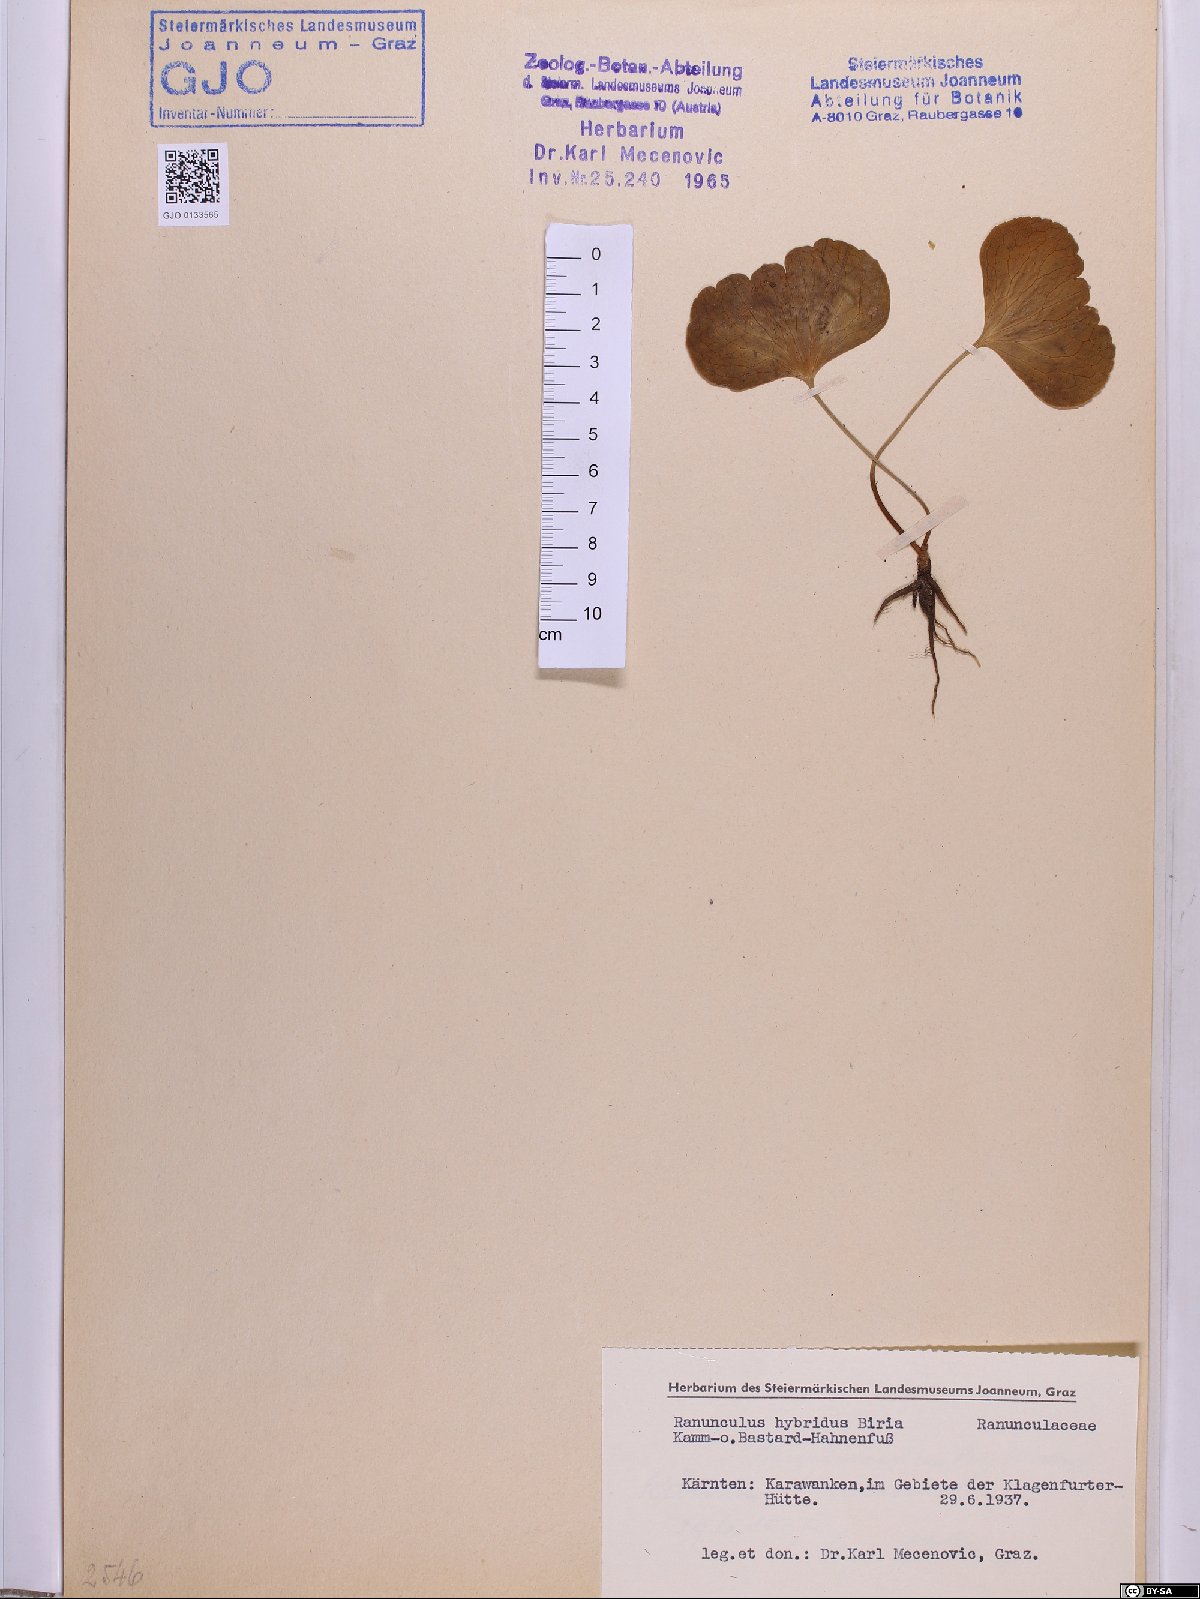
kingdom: Plantae
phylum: Tracheophyta
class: Magnoliopsida
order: Ranunculales
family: Ranunculaceae
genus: Ranunculus
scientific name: Ranunculus hybridus
